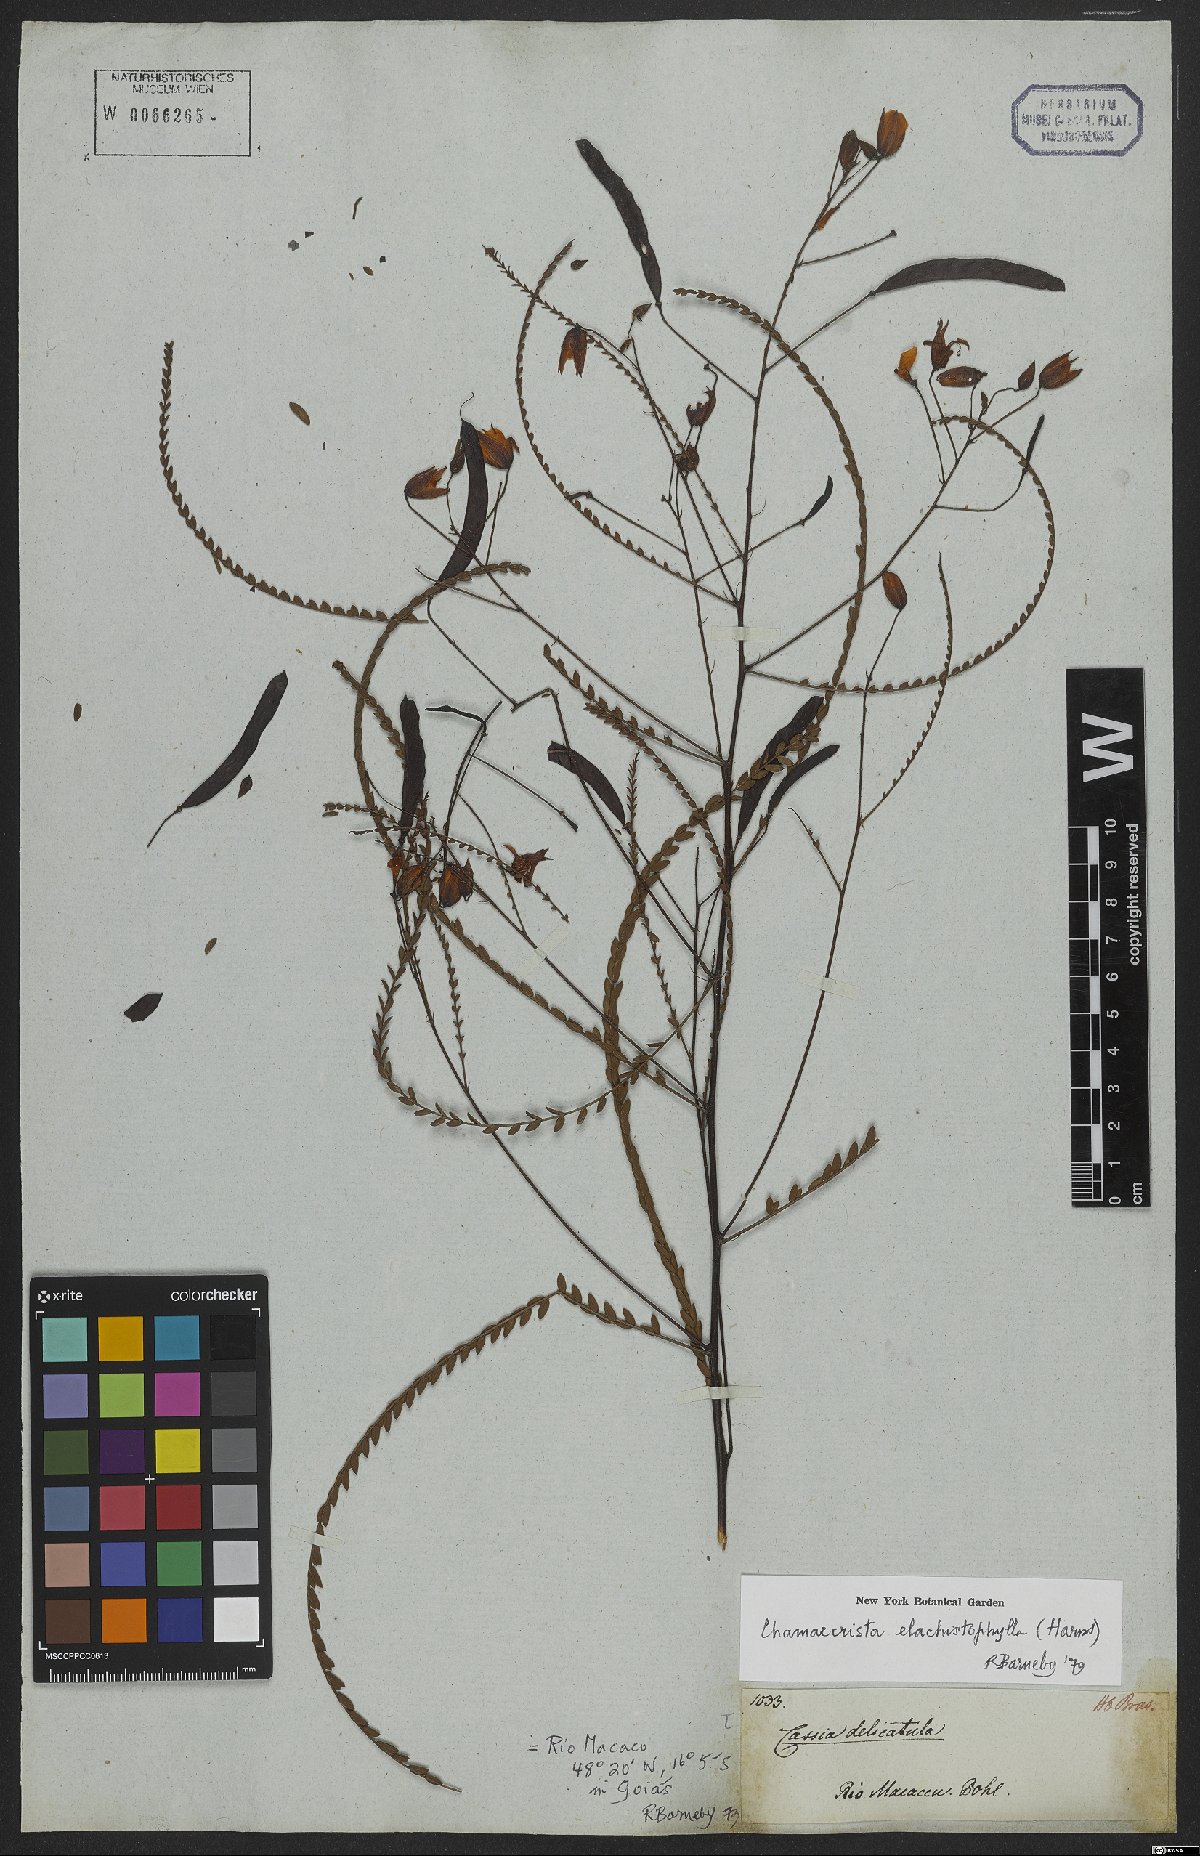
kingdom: Plantae
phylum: Tracheophyta
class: Magnoliopsida
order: Fabales
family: Fabaceae
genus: Chamaecrista
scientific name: Chamaecrista elachistophylla
